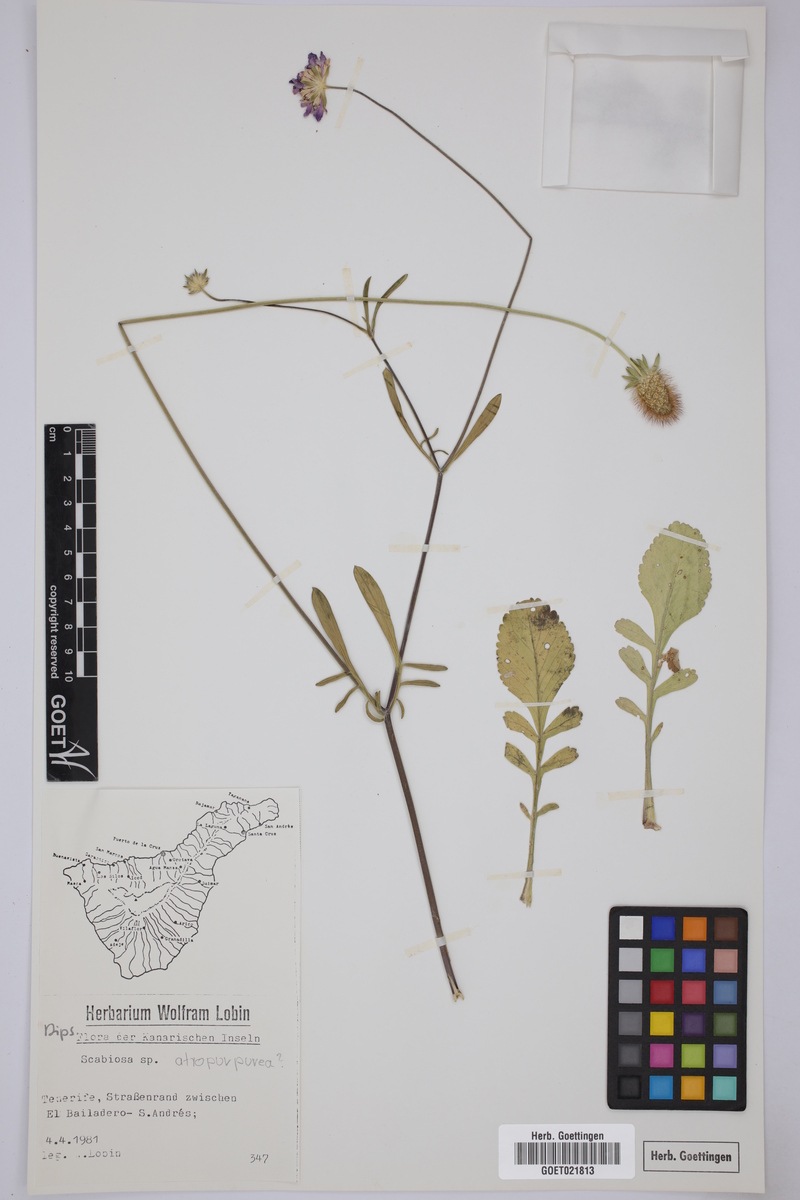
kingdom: Plantae
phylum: Tracheophyta
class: Magnoliopsida
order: Dipsacales
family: Caprifoliaceae
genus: Sixalix
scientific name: Sixalix atropurpurea
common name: Sweet scabious
